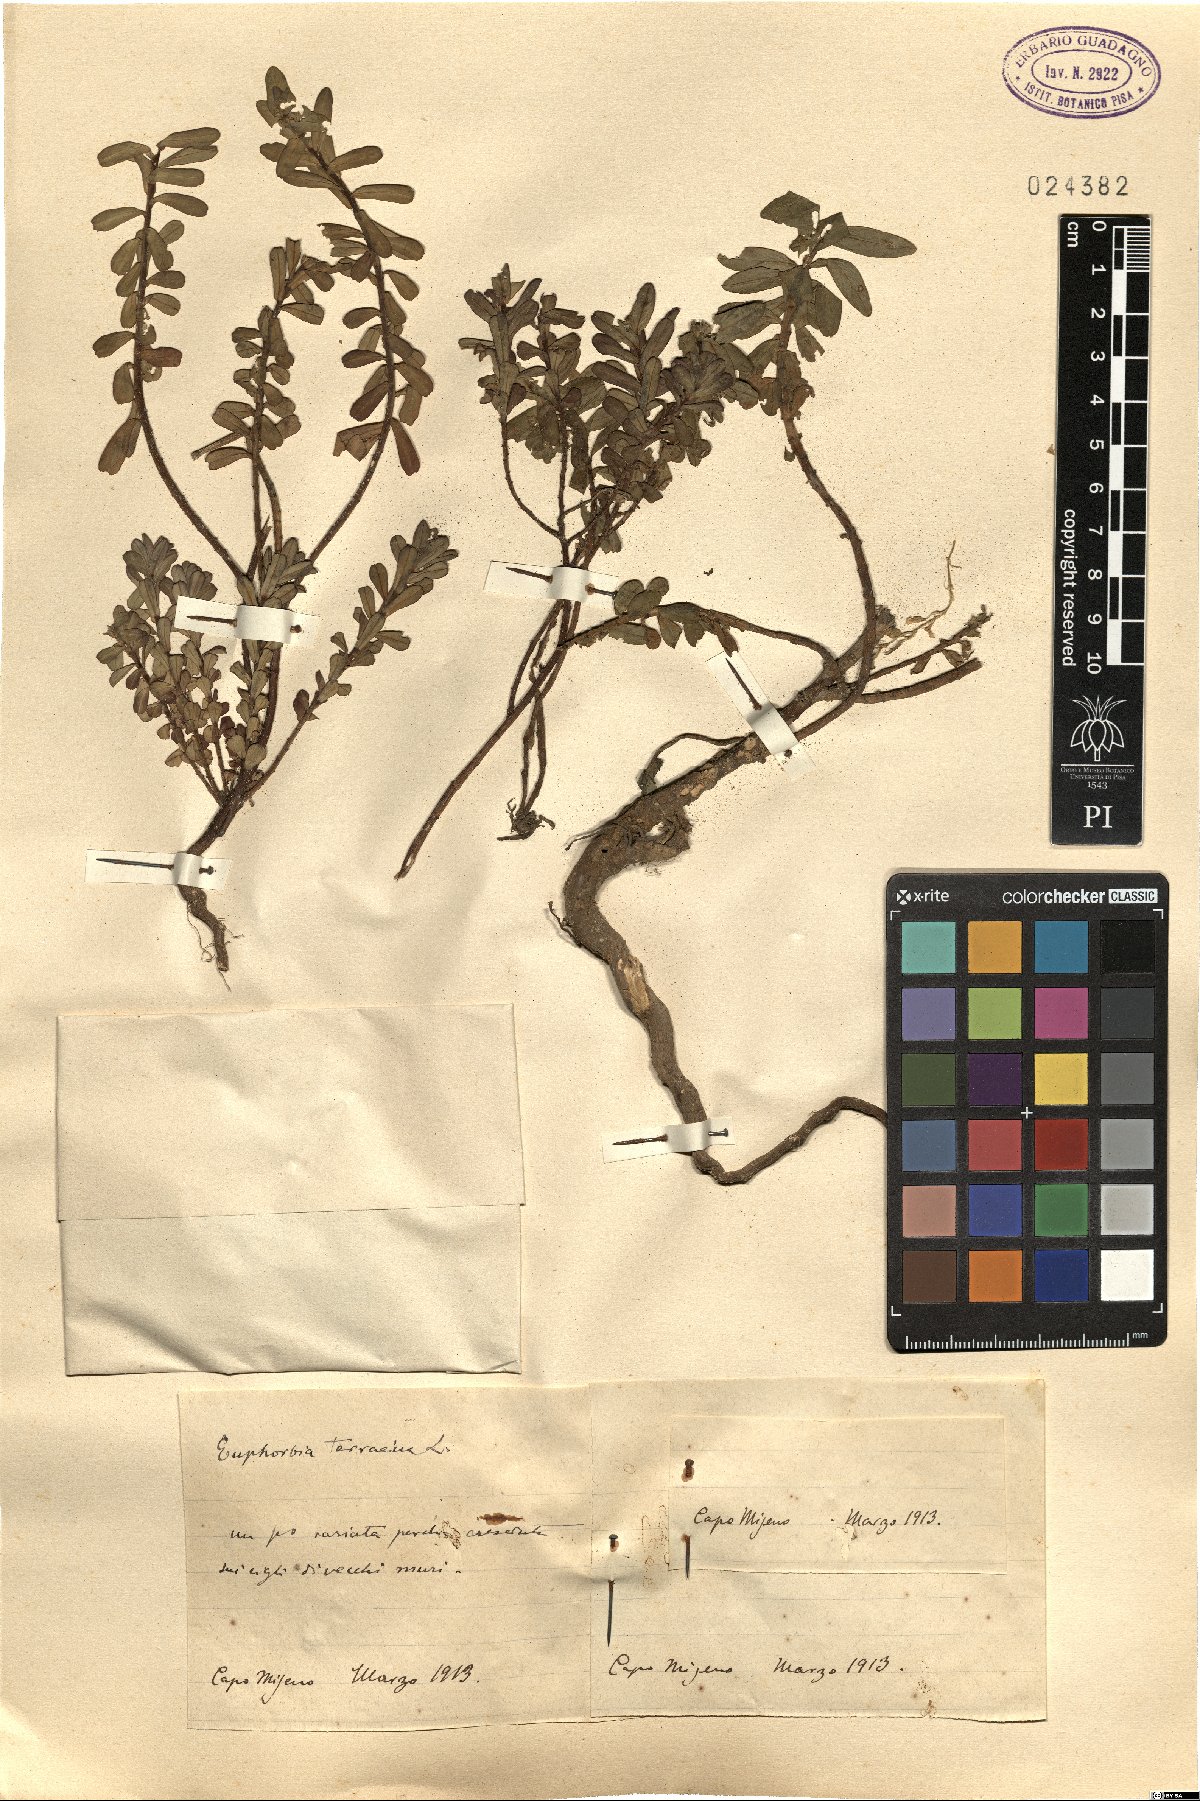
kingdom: Plantae
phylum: Tracheophyta
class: Magnoliopsida
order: Malpighiales
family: Euphorbiaceae
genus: Euphorbia
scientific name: Euphorbia terracina
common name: Geraldton carnation weed
